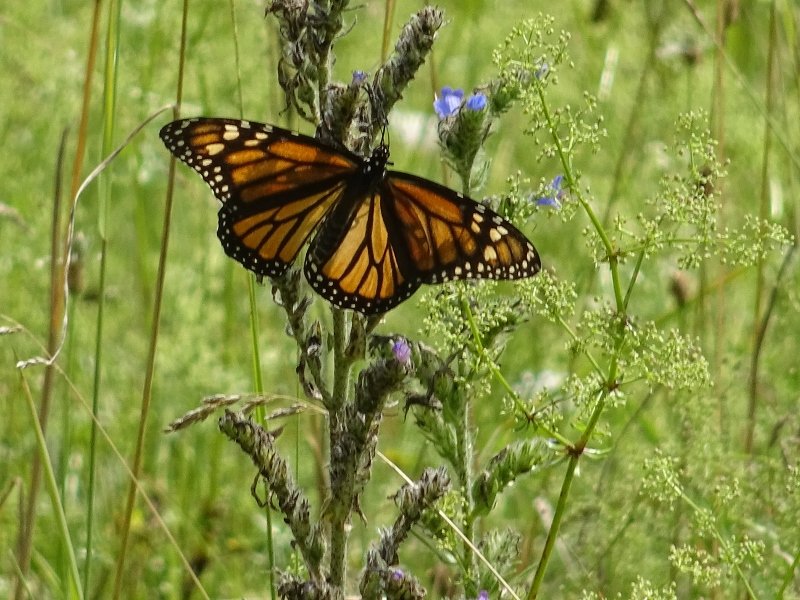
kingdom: Animalia
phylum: Arthropoda
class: Insecta
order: Lepidoptera
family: Nymphalidae
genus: Danaus
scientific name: Danaus plexippus
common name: Monarch
